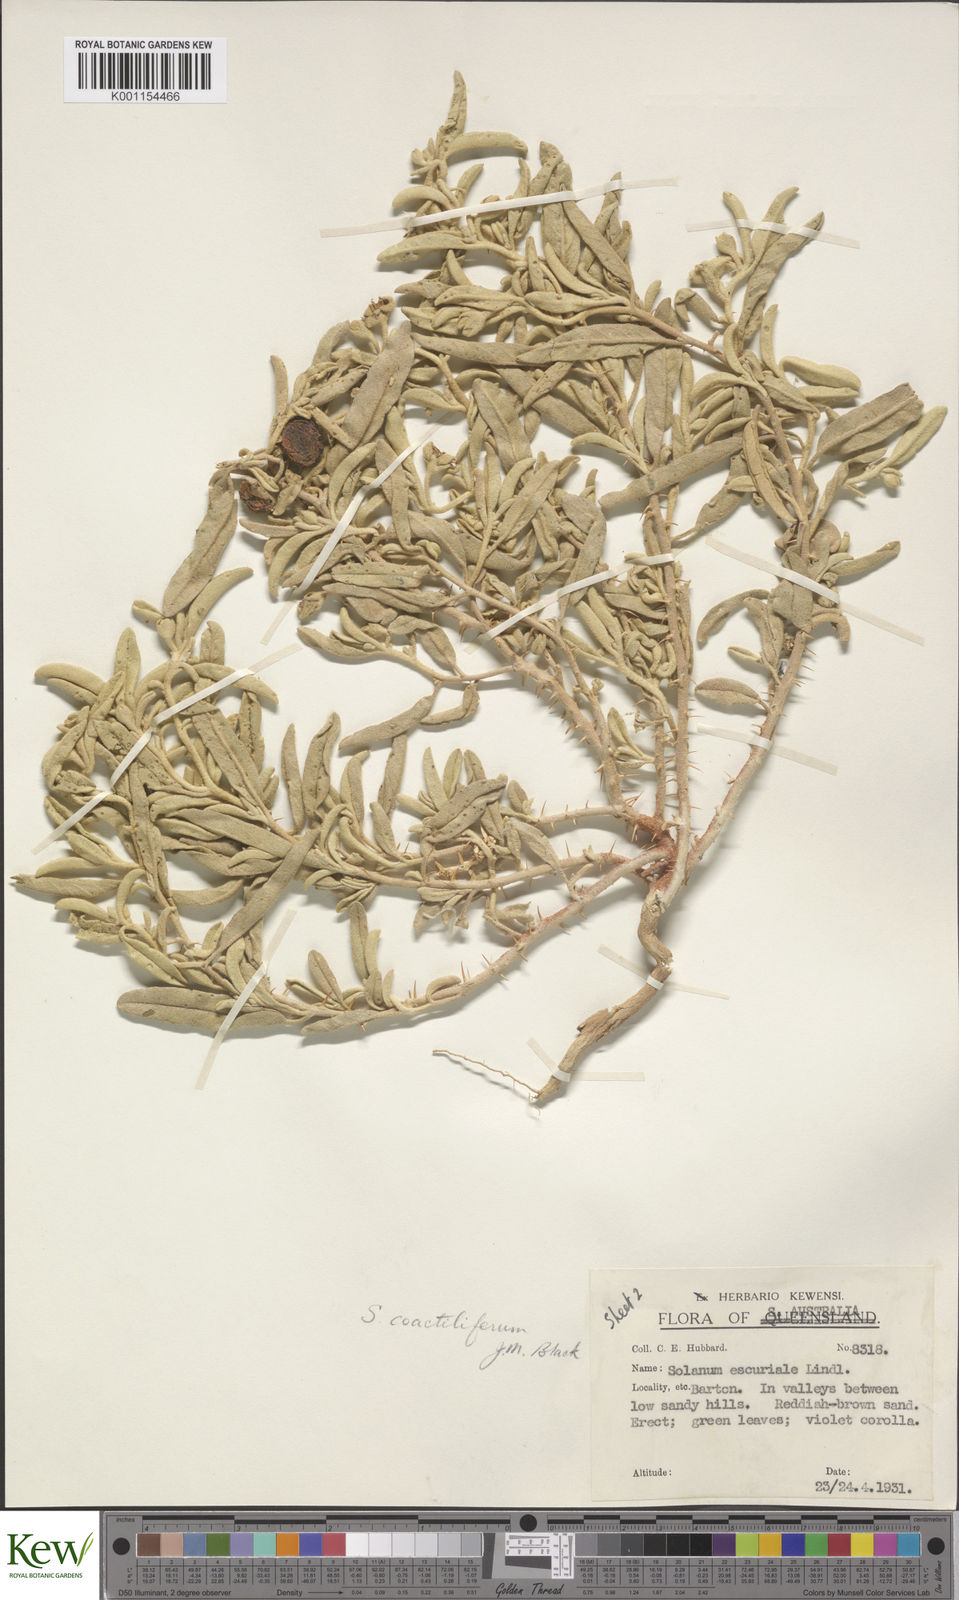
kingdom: Plantae
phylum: Tracheophyta
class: Magnoliopsida
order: Solanales
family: Solanaceae
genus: Solanum
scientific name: Solanum coactiliferum
